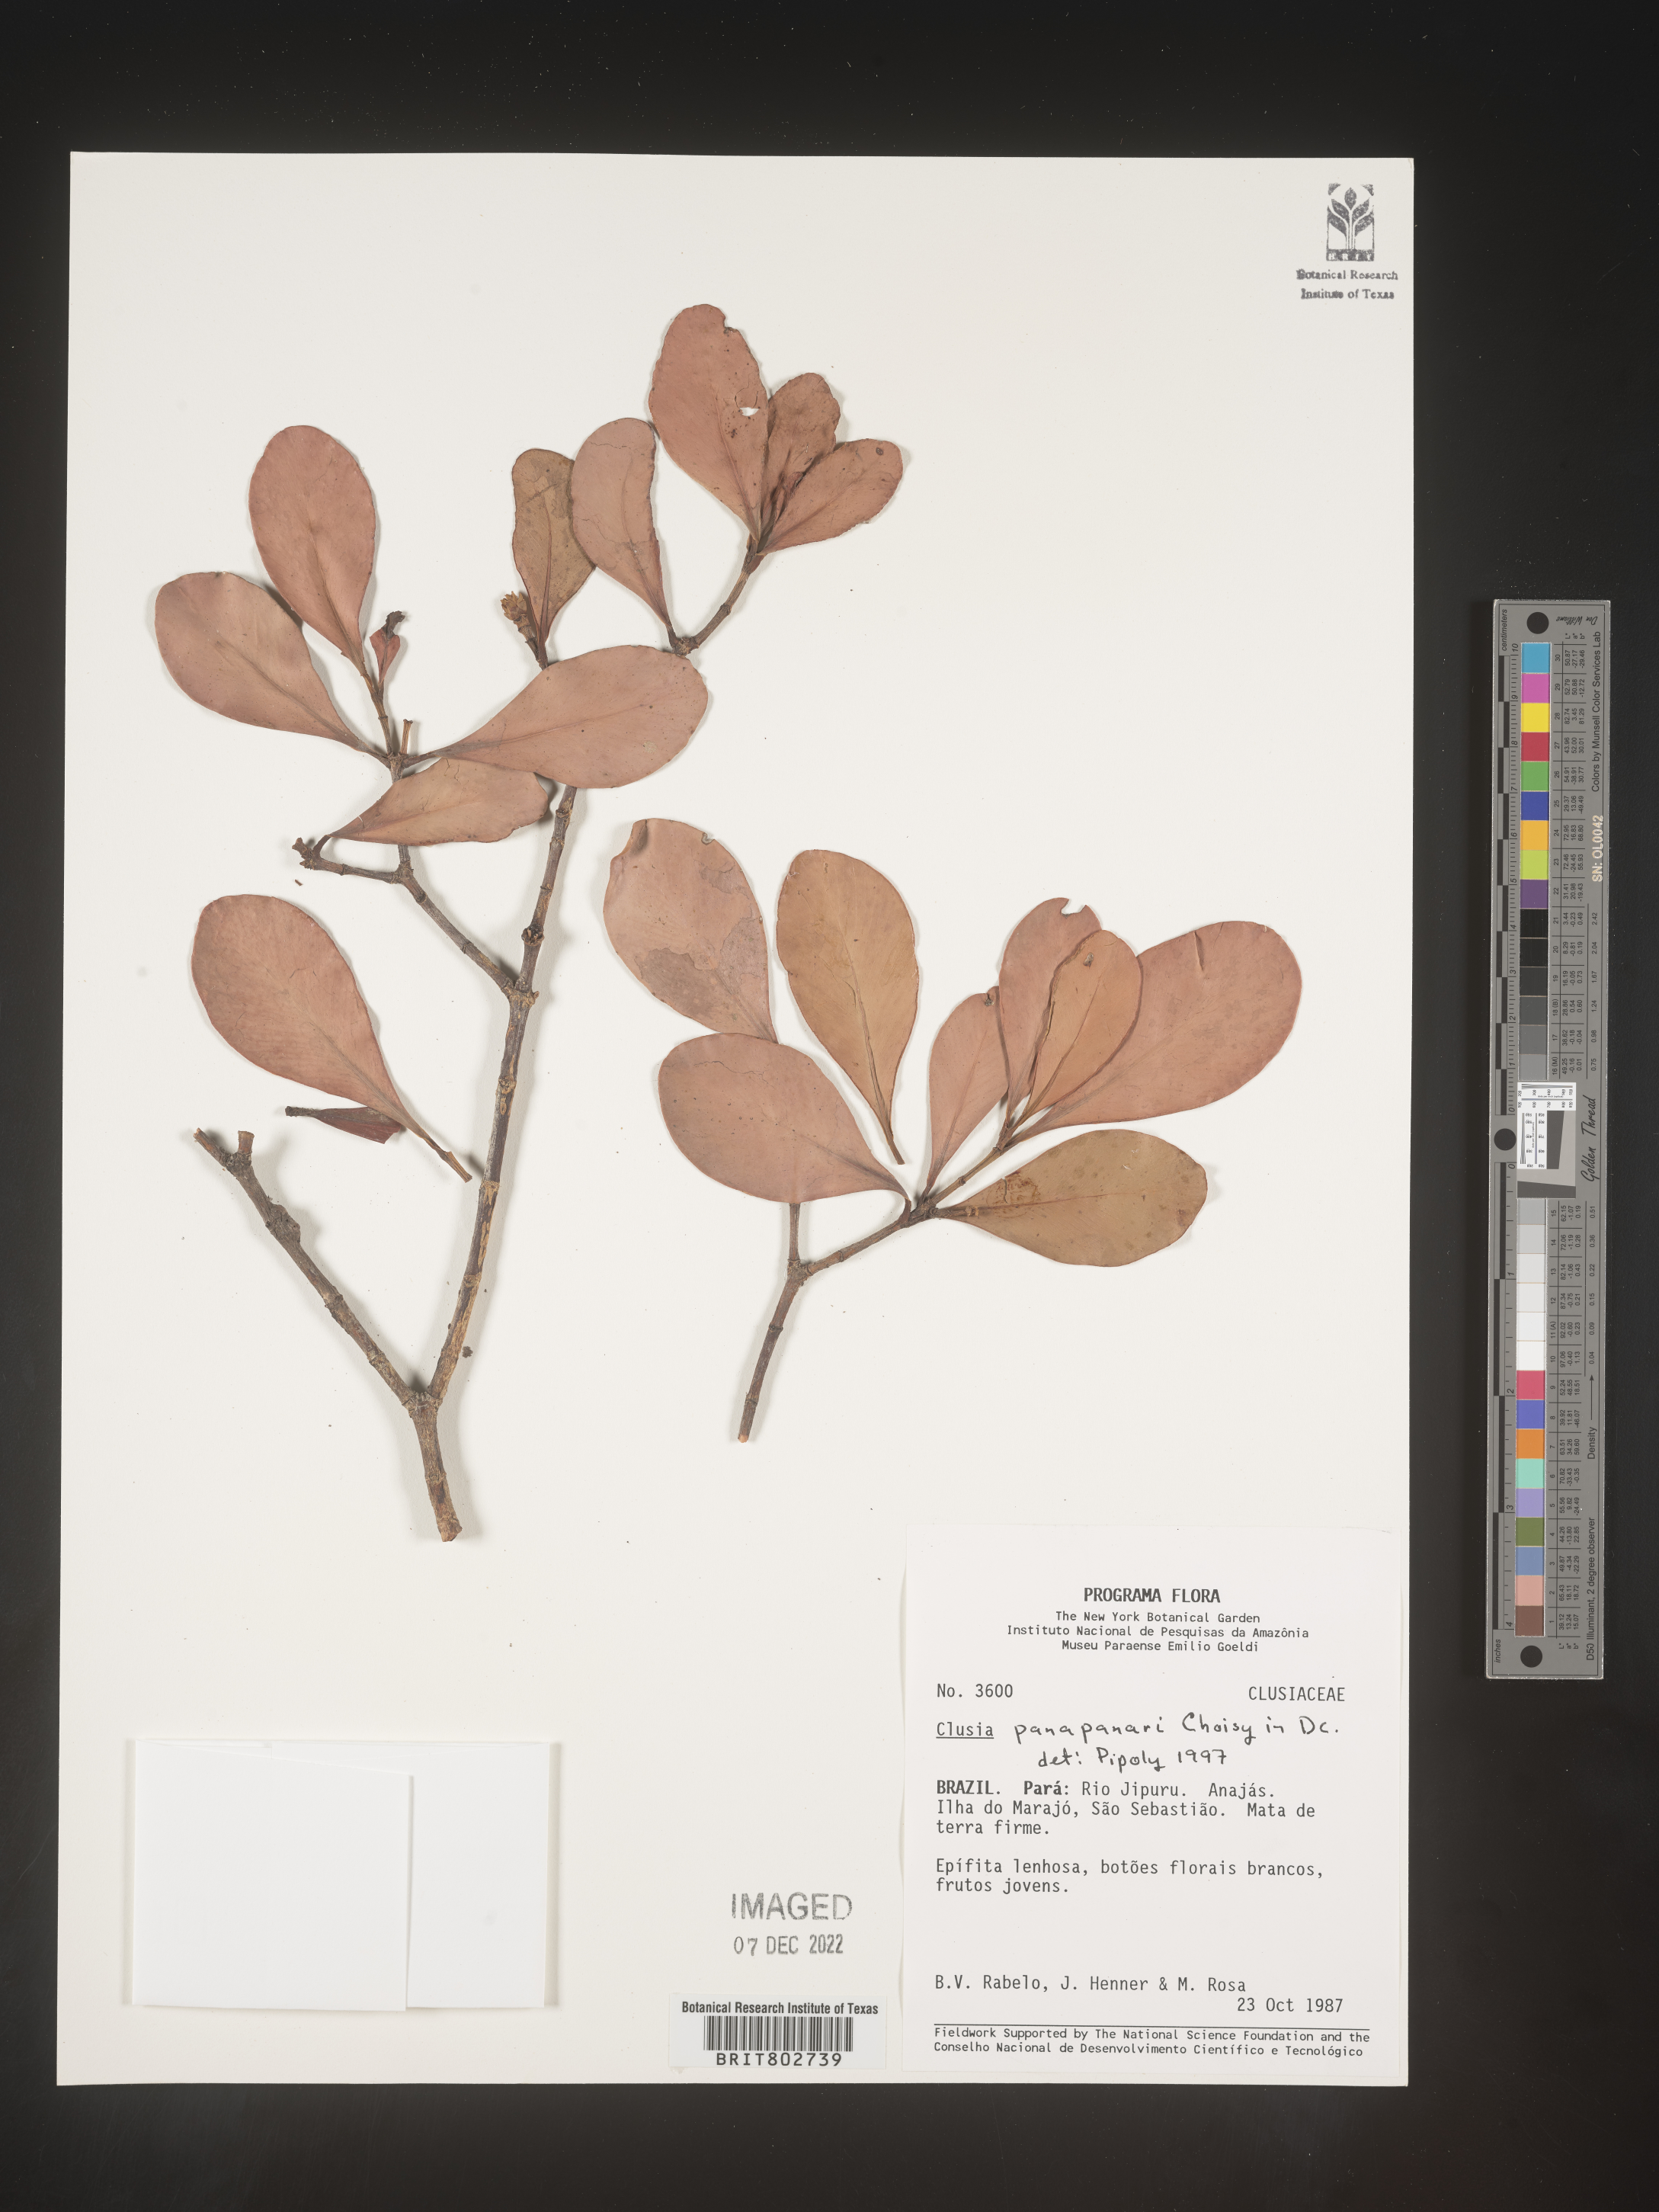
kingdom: Plantae
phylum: Tracheophyta
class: Magnoliopsida
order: Malpighiales
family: Clusiaceae
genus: Clusia
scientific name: Clusia panapanari
